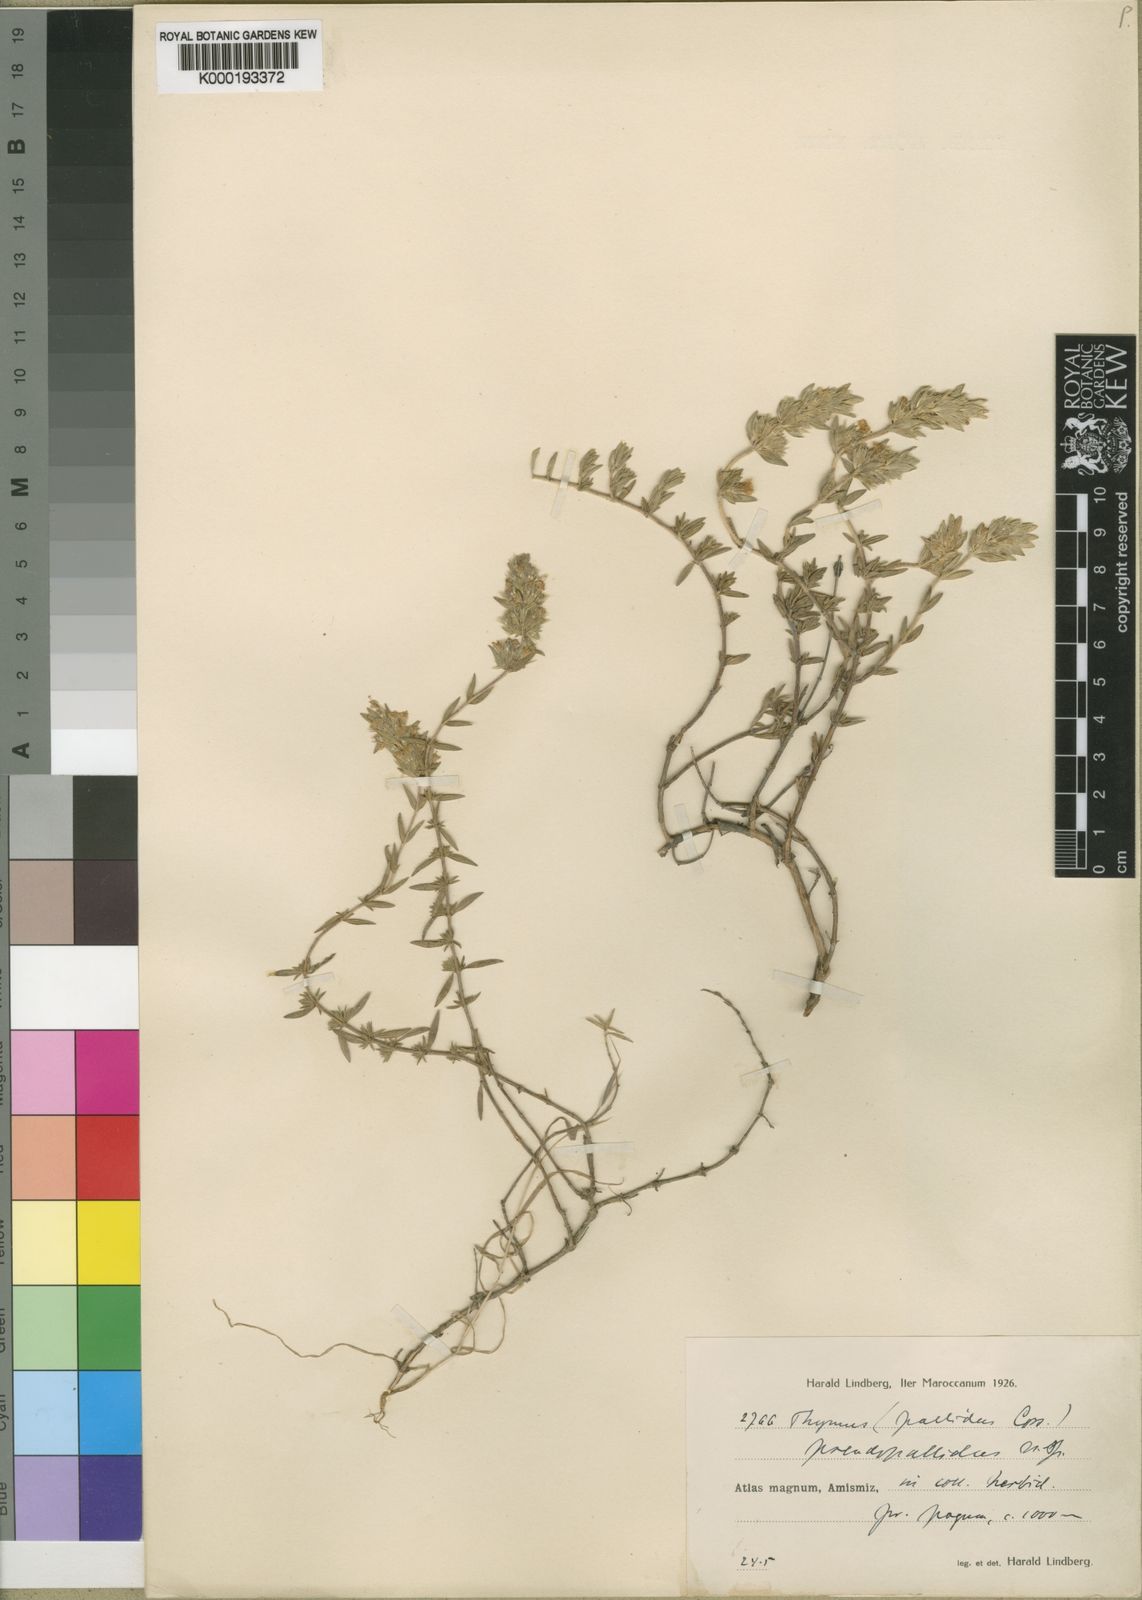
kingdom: Plantae
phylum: Tracheophyta
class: Magnoliopsida
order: Lamiales
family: Lamiaceae
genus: Thymus
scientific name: Thymus
